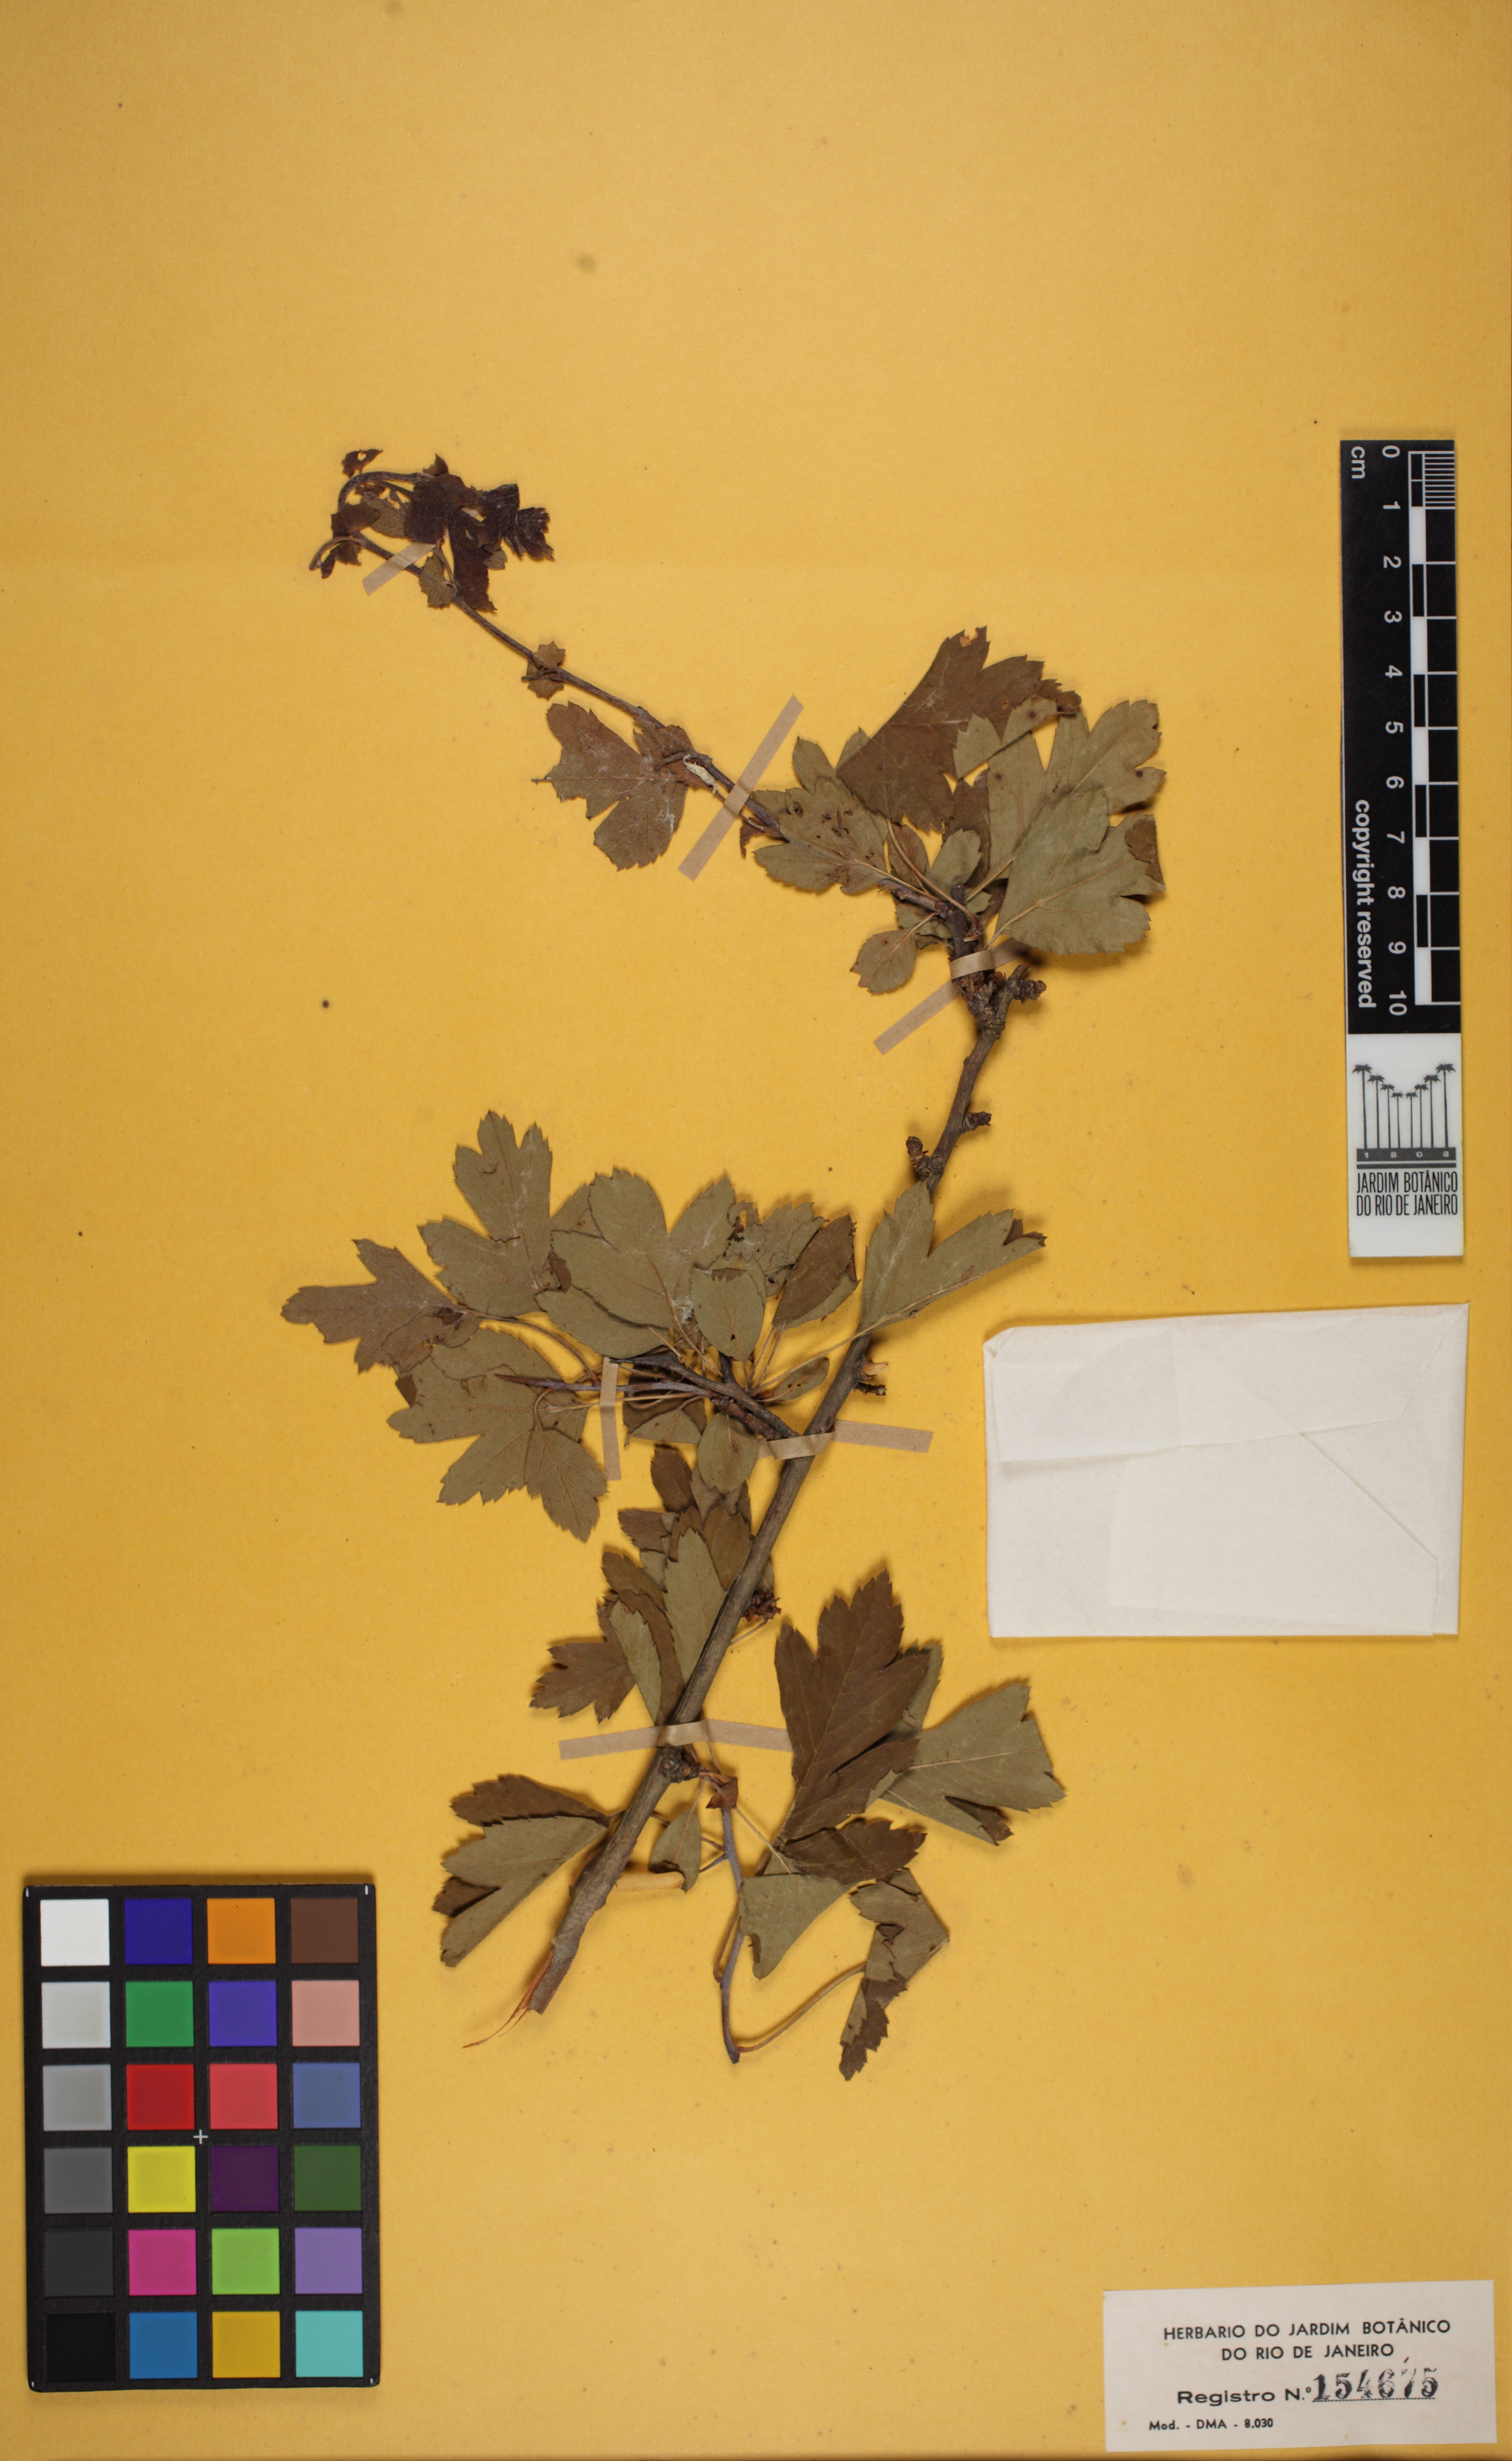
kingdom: Plantae
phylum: Tracheophyta
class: Magnoliopsida
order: Rosales
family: Rosaceae
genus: Crataegus
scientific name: Crataegus pentagyna
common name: Small-flowered black hawthorn
